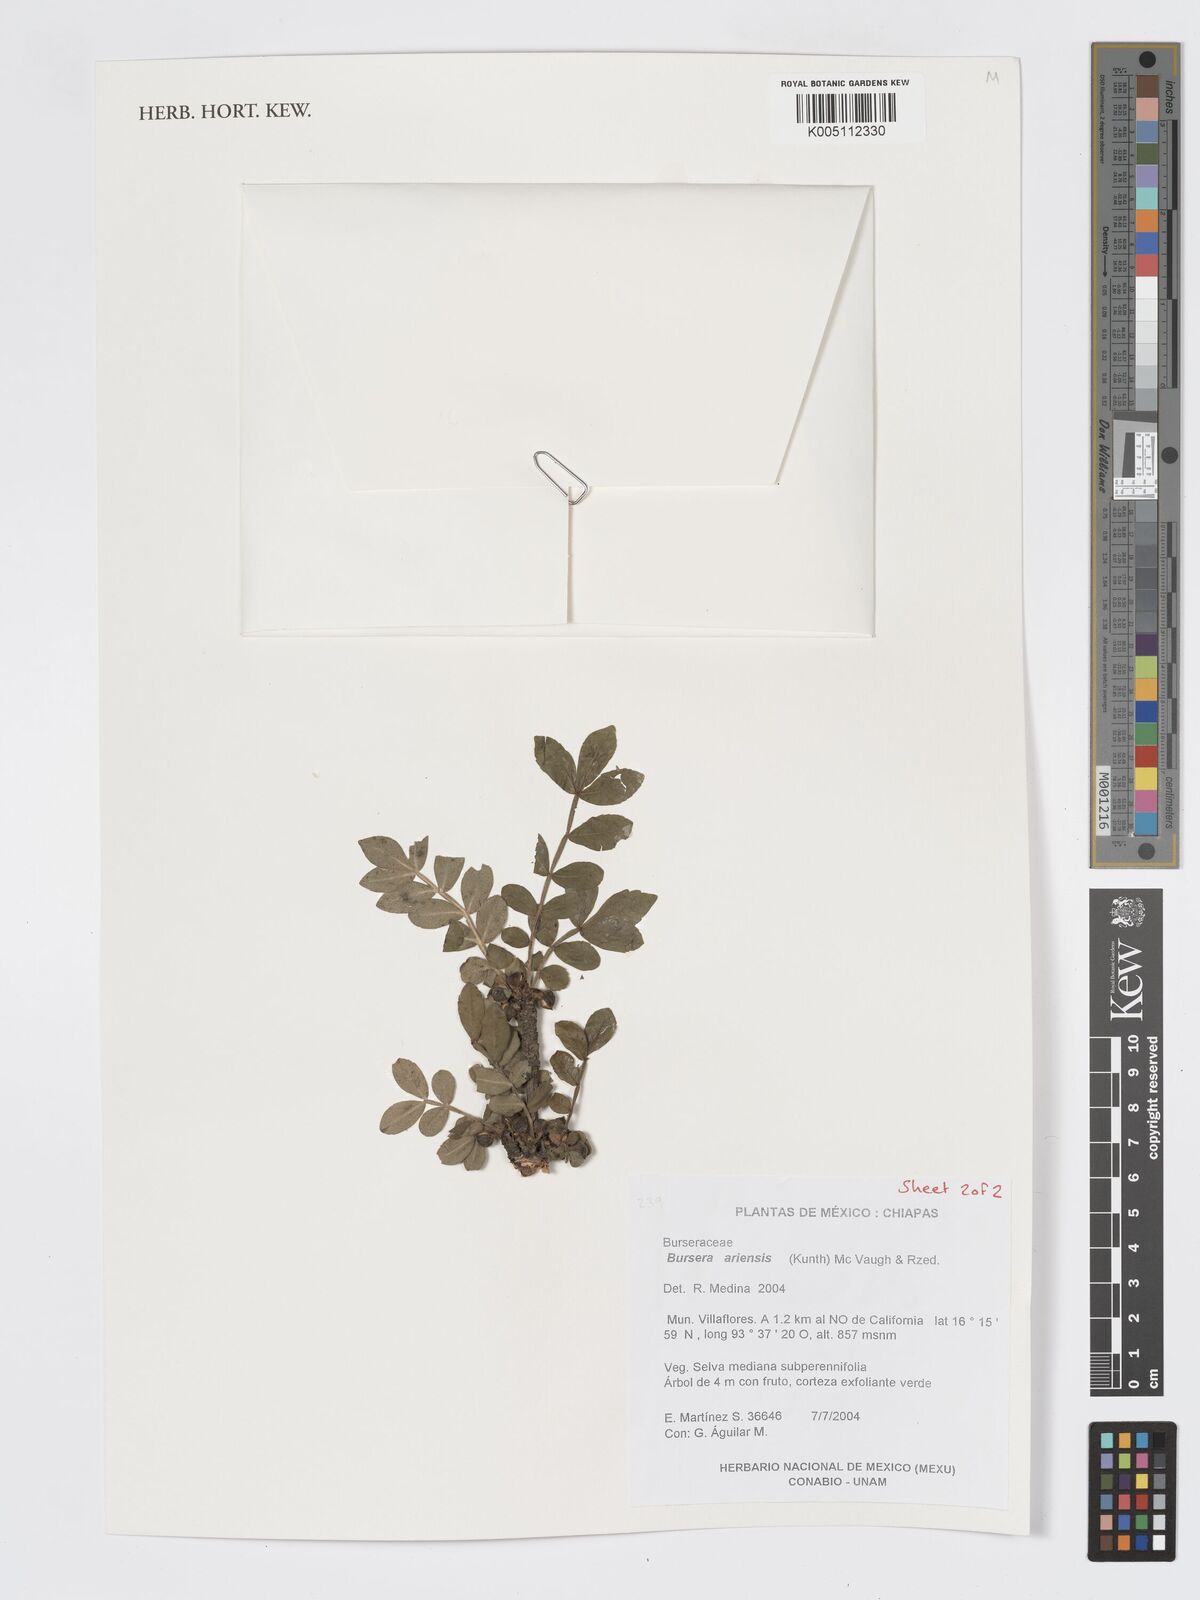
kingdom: Plantae
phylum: Tracheophyta
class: Magnoliopsida
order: Sapindales
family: Burseraceae
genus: Bursera
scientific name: Bursera ariensis
